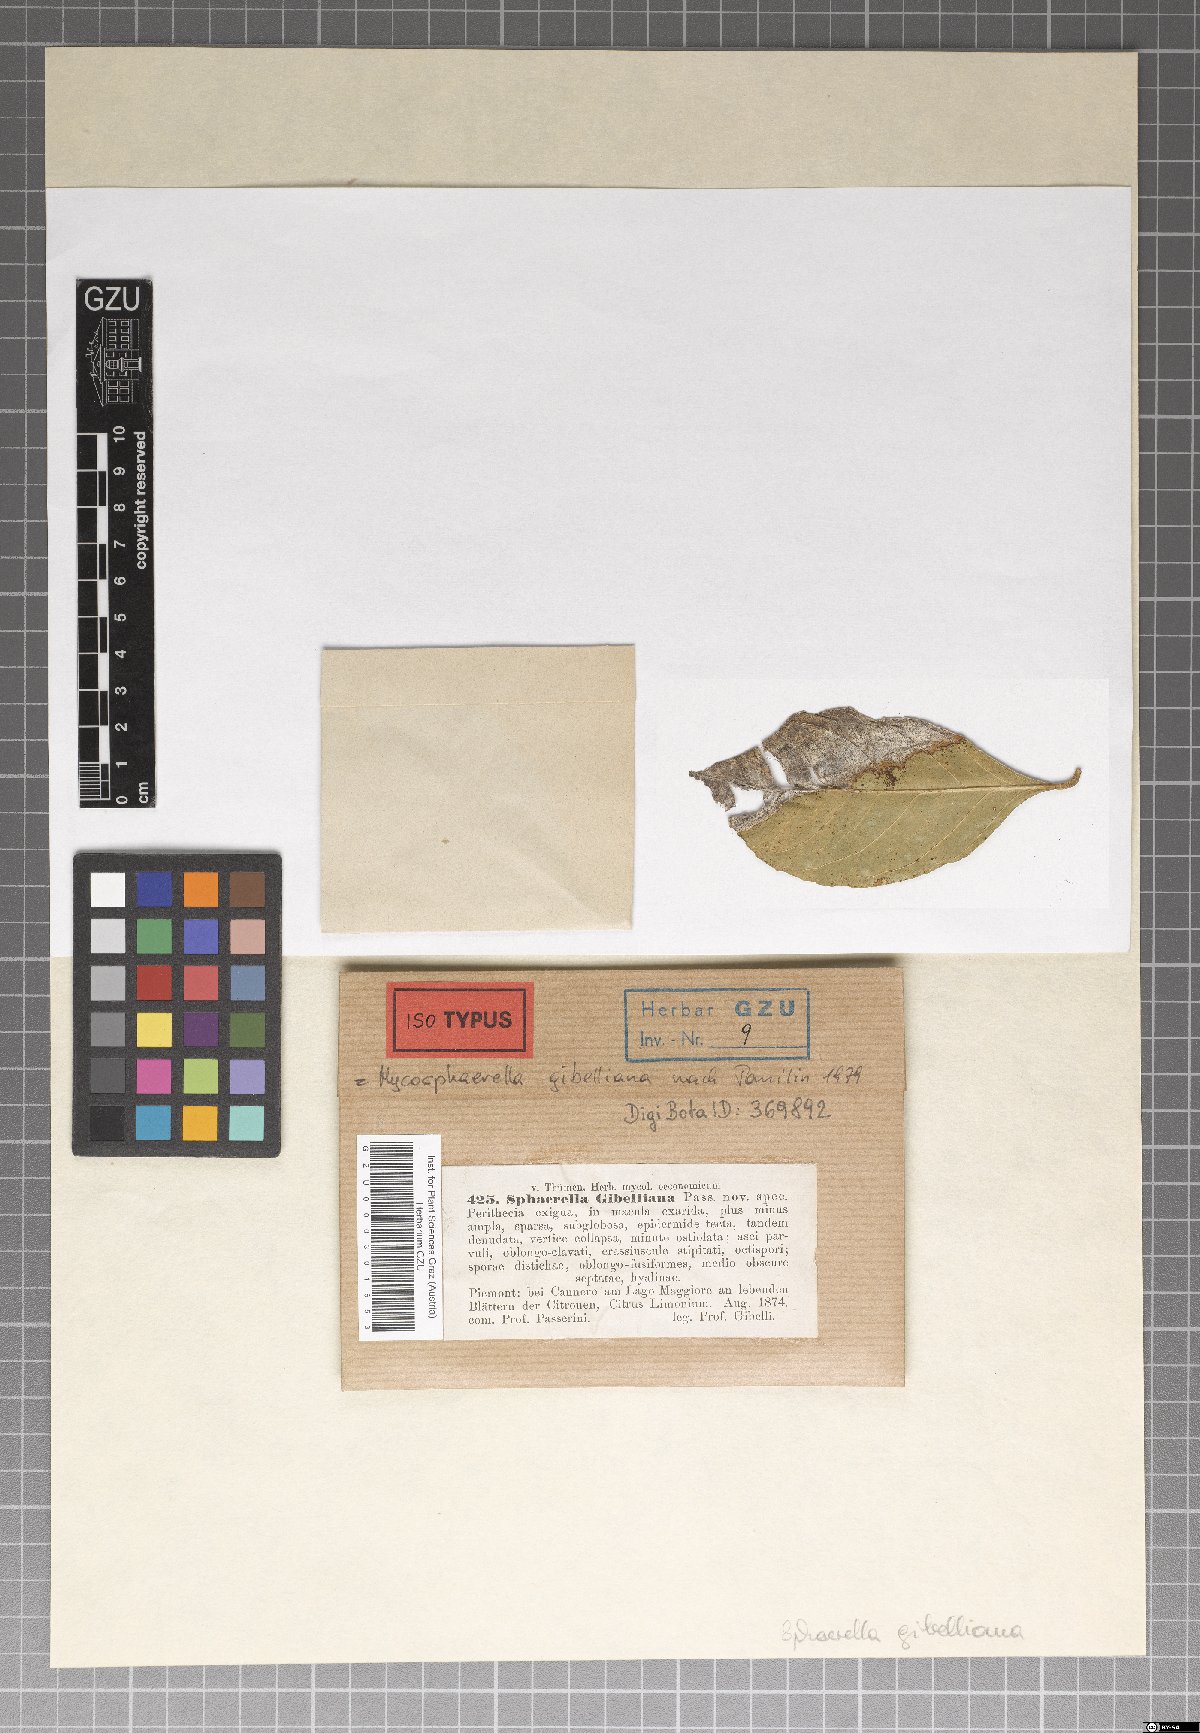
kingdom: Fungi
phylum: Ascomycota
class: Dothideomycetes
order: Mycosphaerellales
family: Mycosphaerellaceae
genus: Mycosphaerella
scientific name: Mycosphaerella gibelliana
